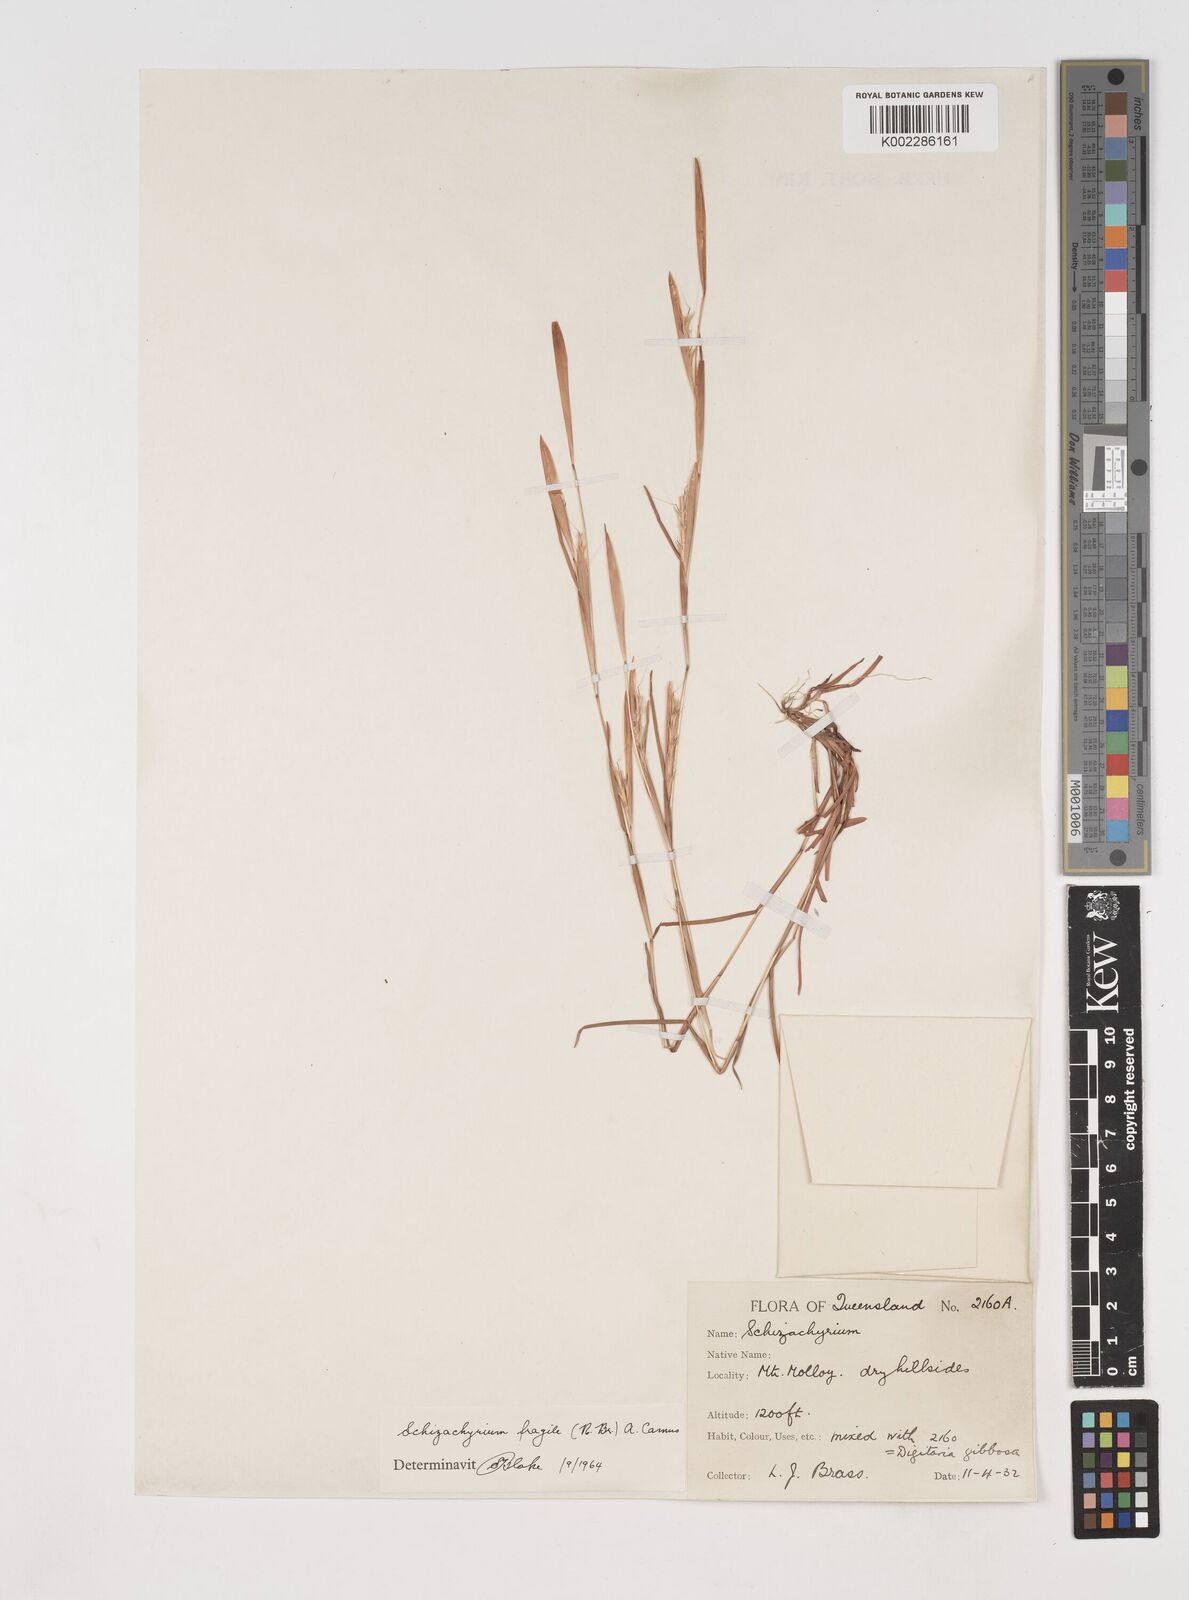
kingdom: Plantae
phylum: Tracheophyta
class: Liliopsida
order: Poales
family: Poaceae
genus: Schizachyrium
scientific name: Schizachyrium fragile
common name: Red spathe grass
